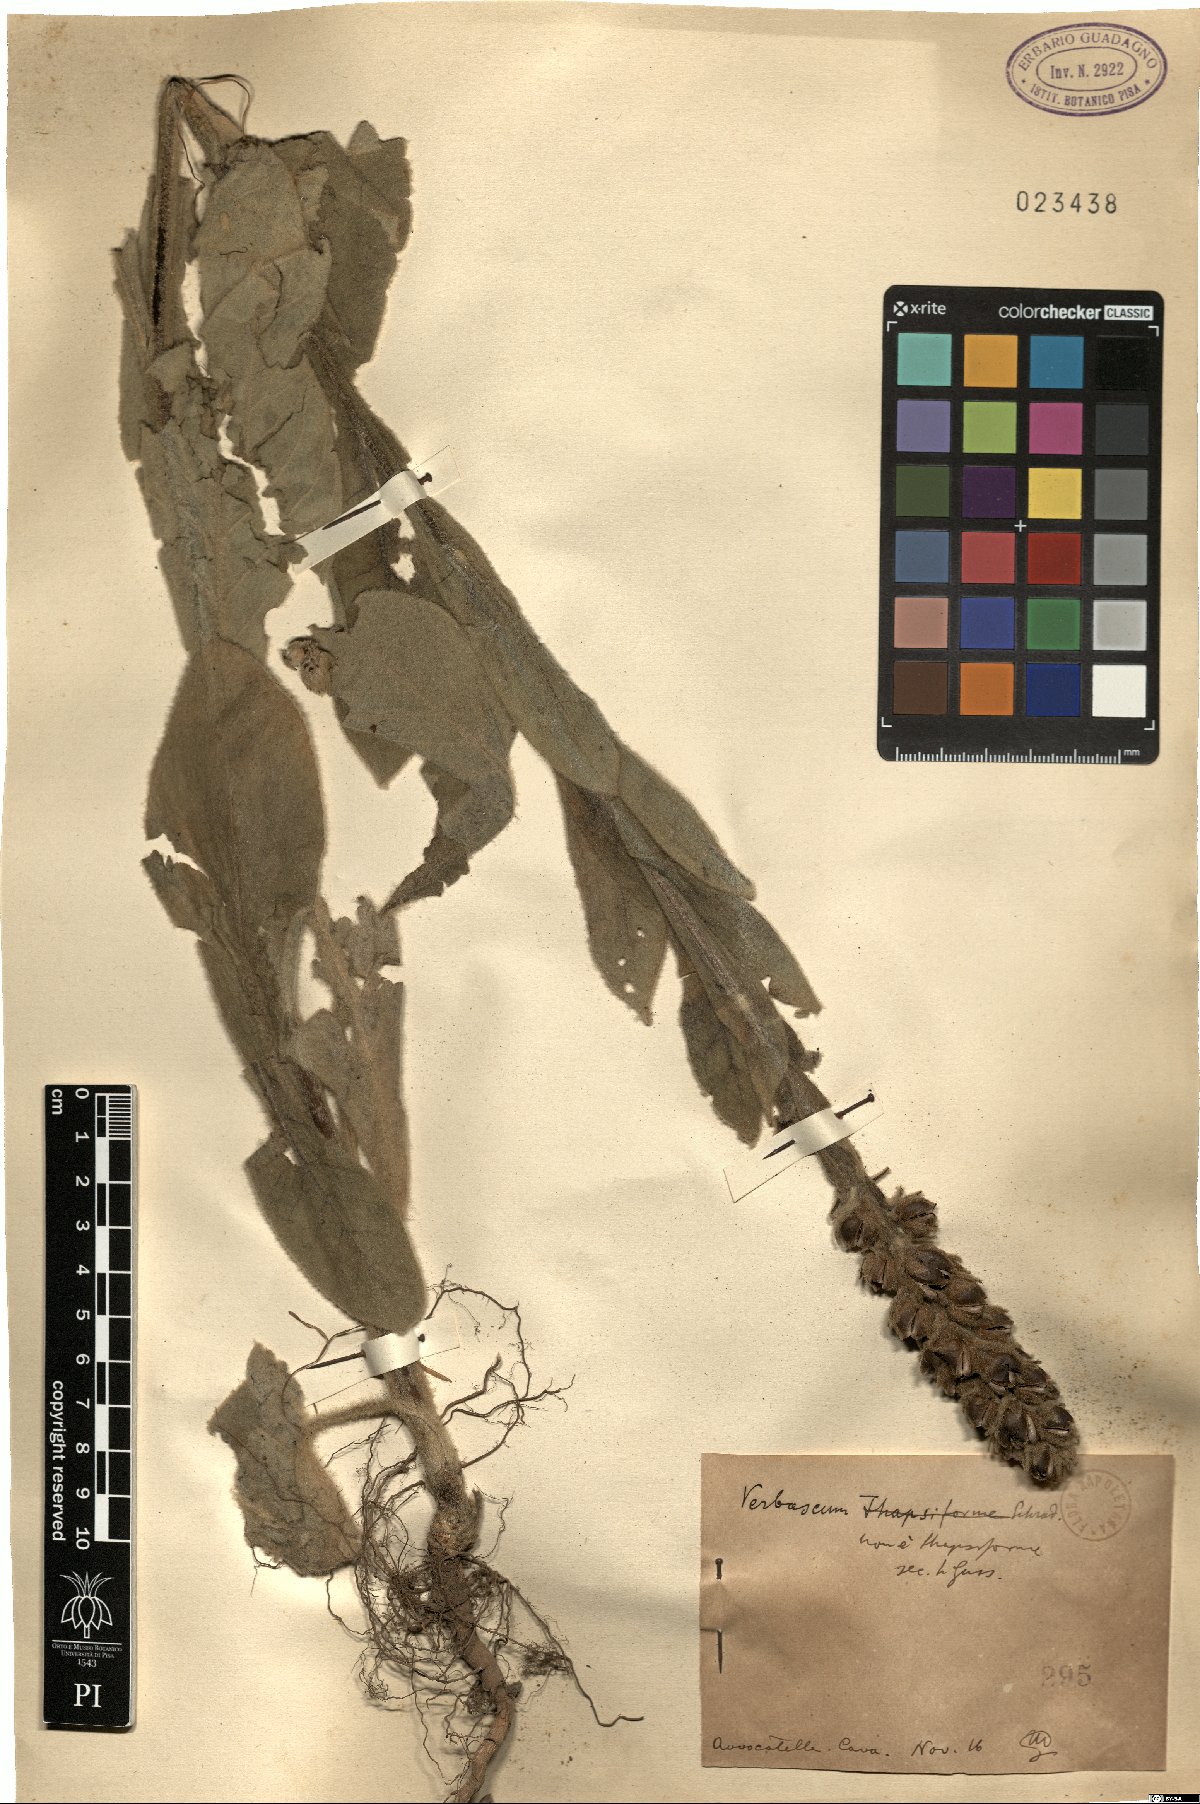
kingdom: Plantae
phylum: Tracheophyta
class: Magnoliopsida
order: Lamiales
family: Scrophulariaceae
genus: Verbascum
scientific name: Verbascum densiflorum
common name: Dense-flowered mullein
